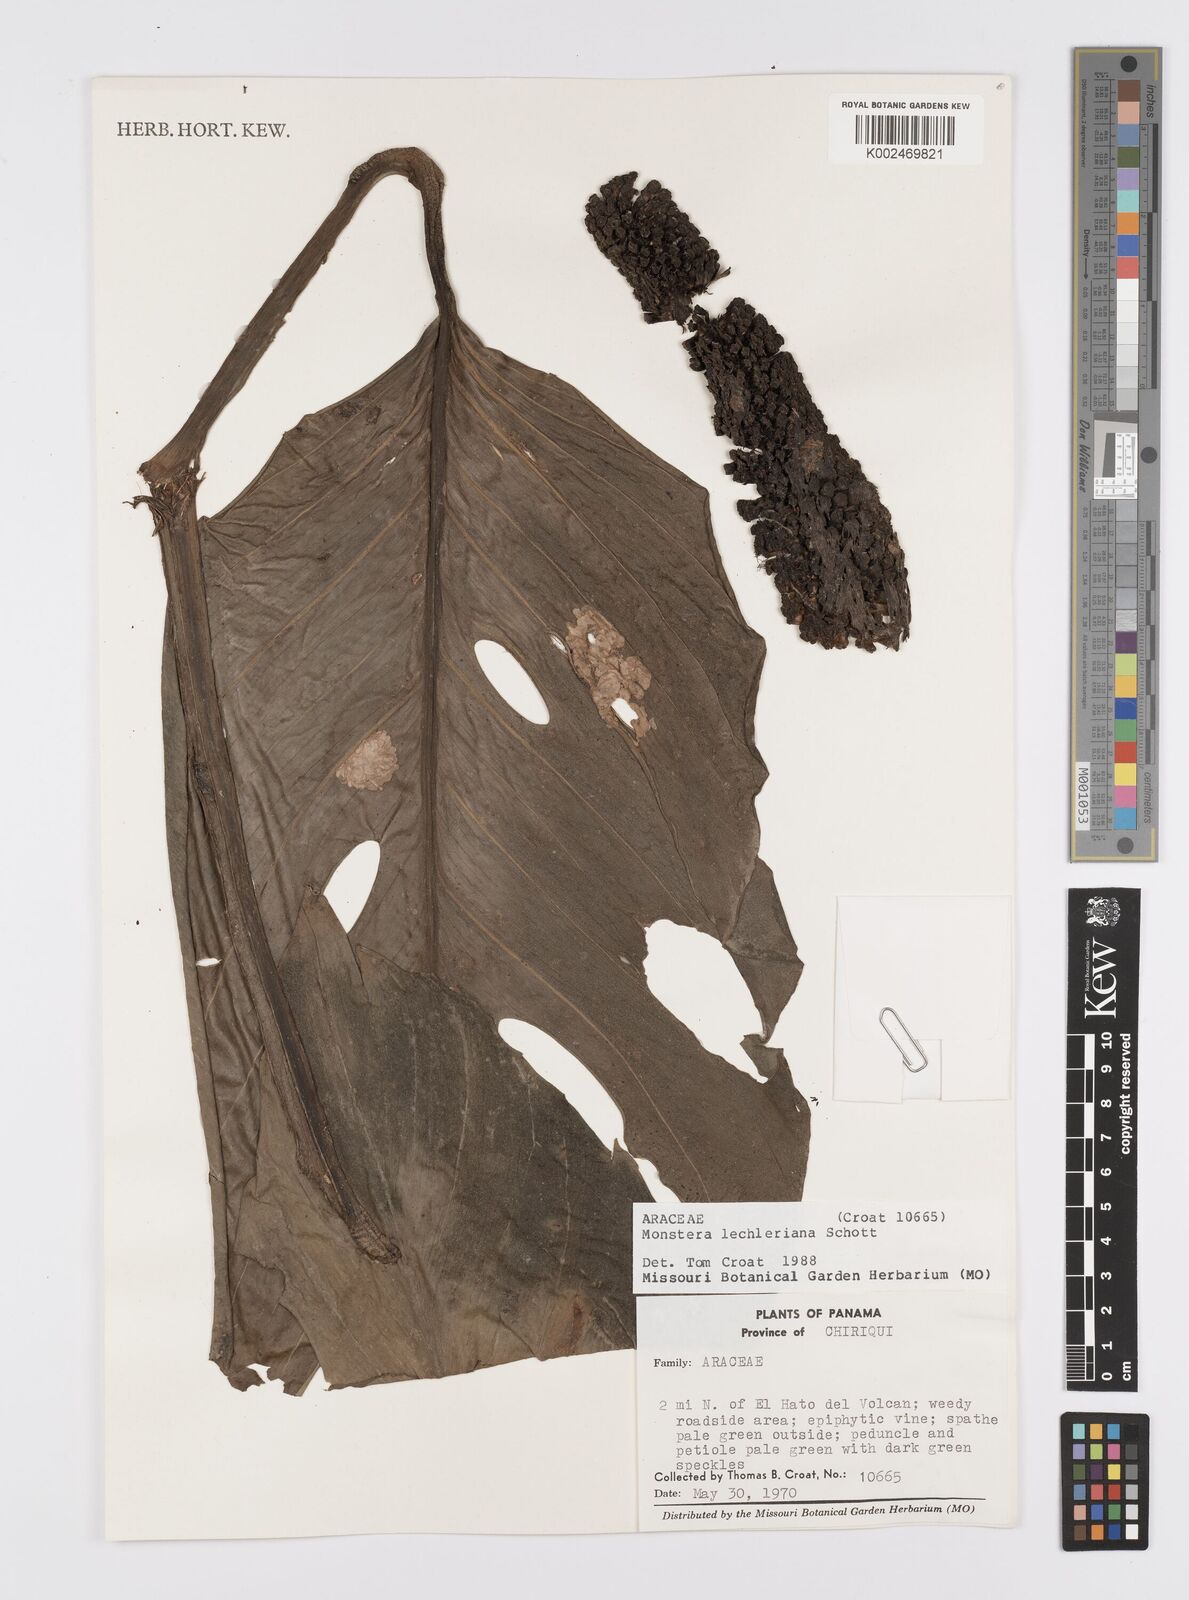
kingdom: Plantae
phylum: Tracheophyta
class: Liliopsida
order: Alismatales
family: Araceae
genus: Monstera
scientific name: Monstera lechleriana
